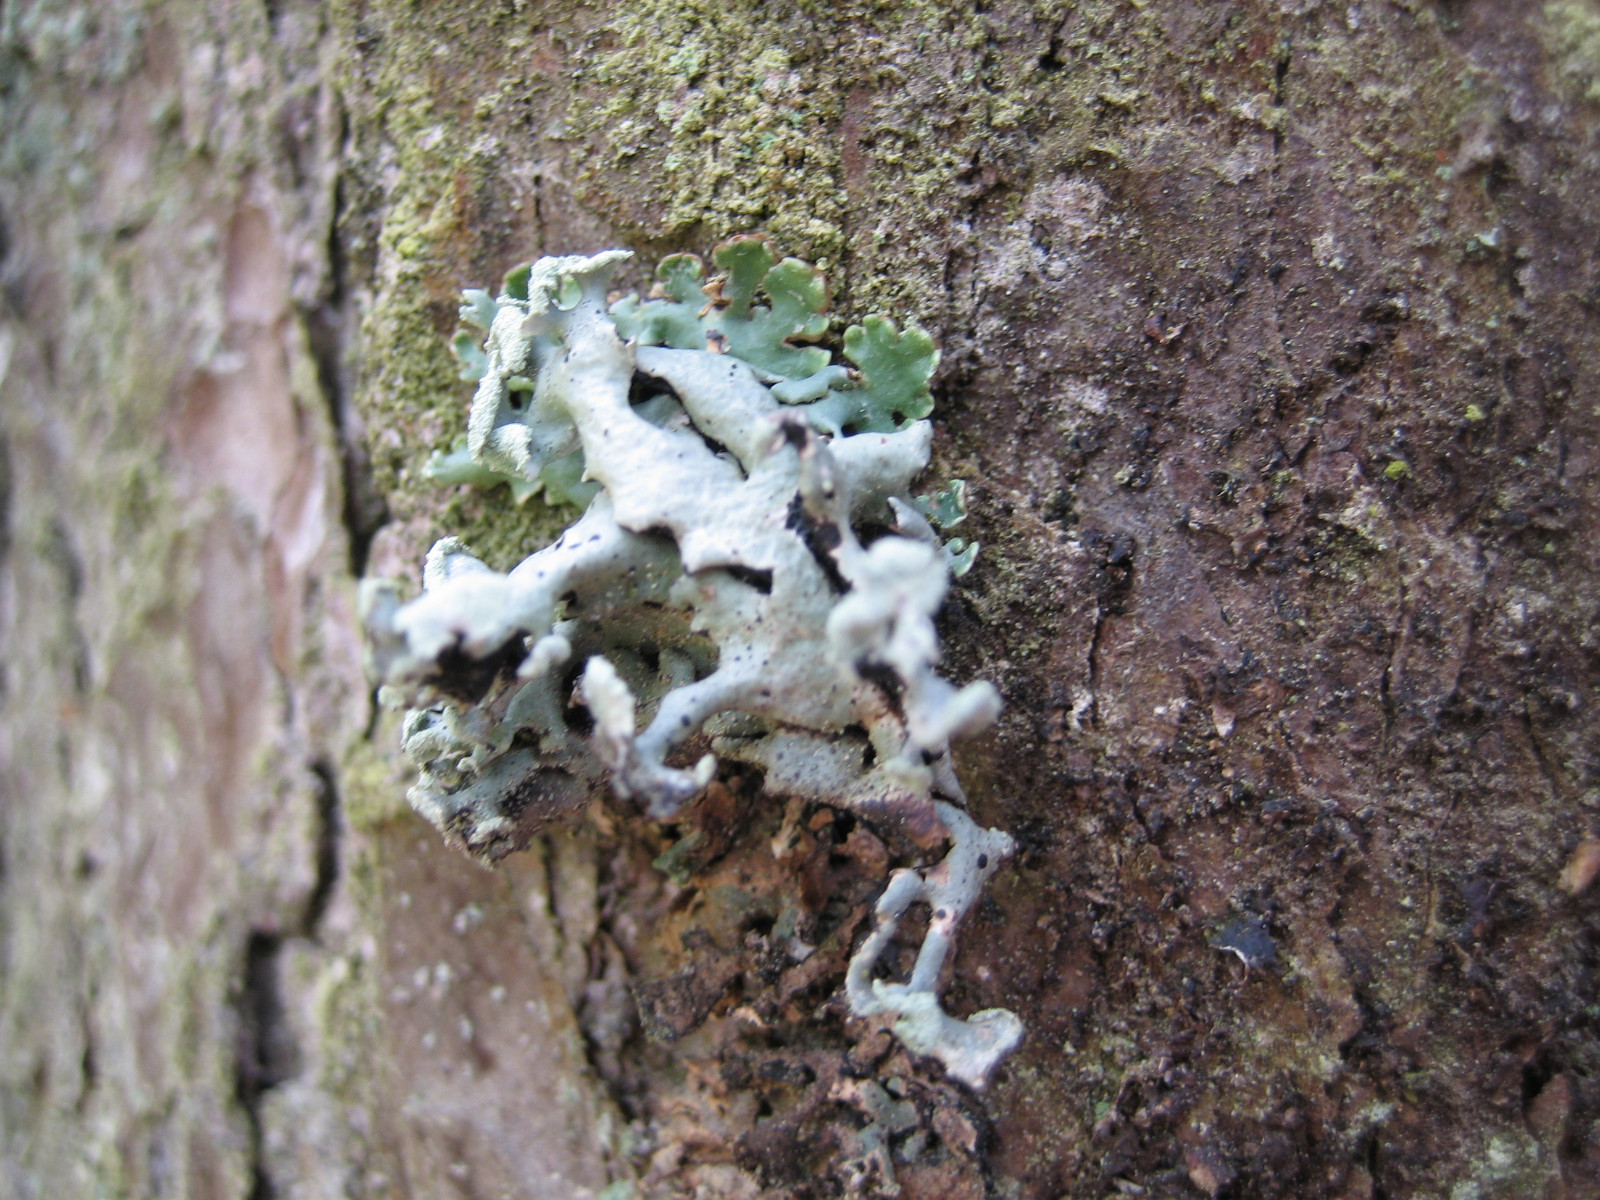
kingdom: Fungi
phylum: Ascomycota
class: Lecanoromycetes
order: Lecanorales
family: Parmeliaceae
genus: Hypogymnia
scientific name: Hypogymnia physodes
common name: almindelig kvistlav
